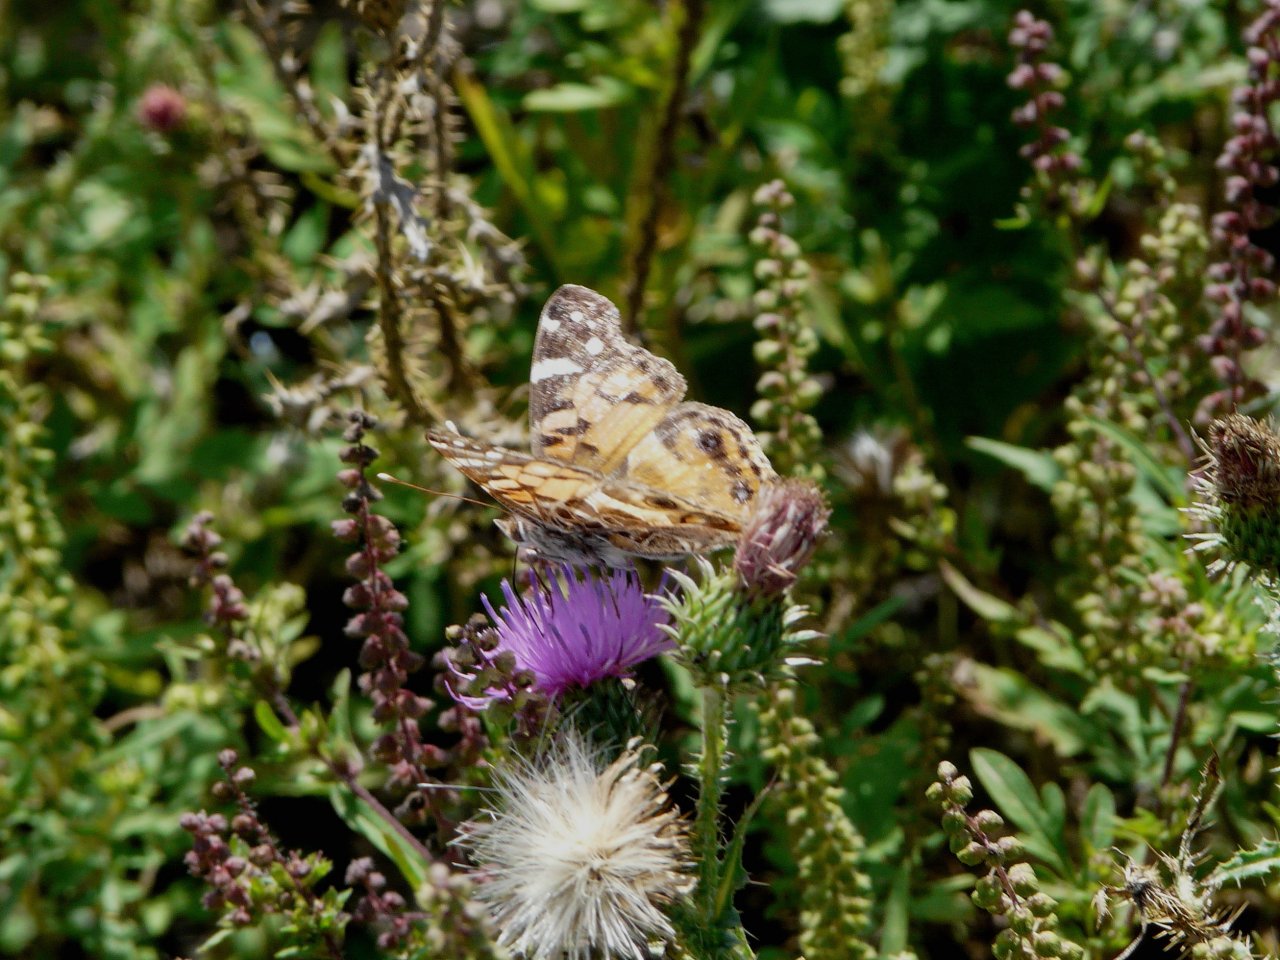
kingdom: Animalia
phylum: Arthropoda
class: Insecta
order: Lepidoptera
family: Nymphalidae
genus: Vanessa
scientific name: Vanessa virginiensis
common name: American Lady
